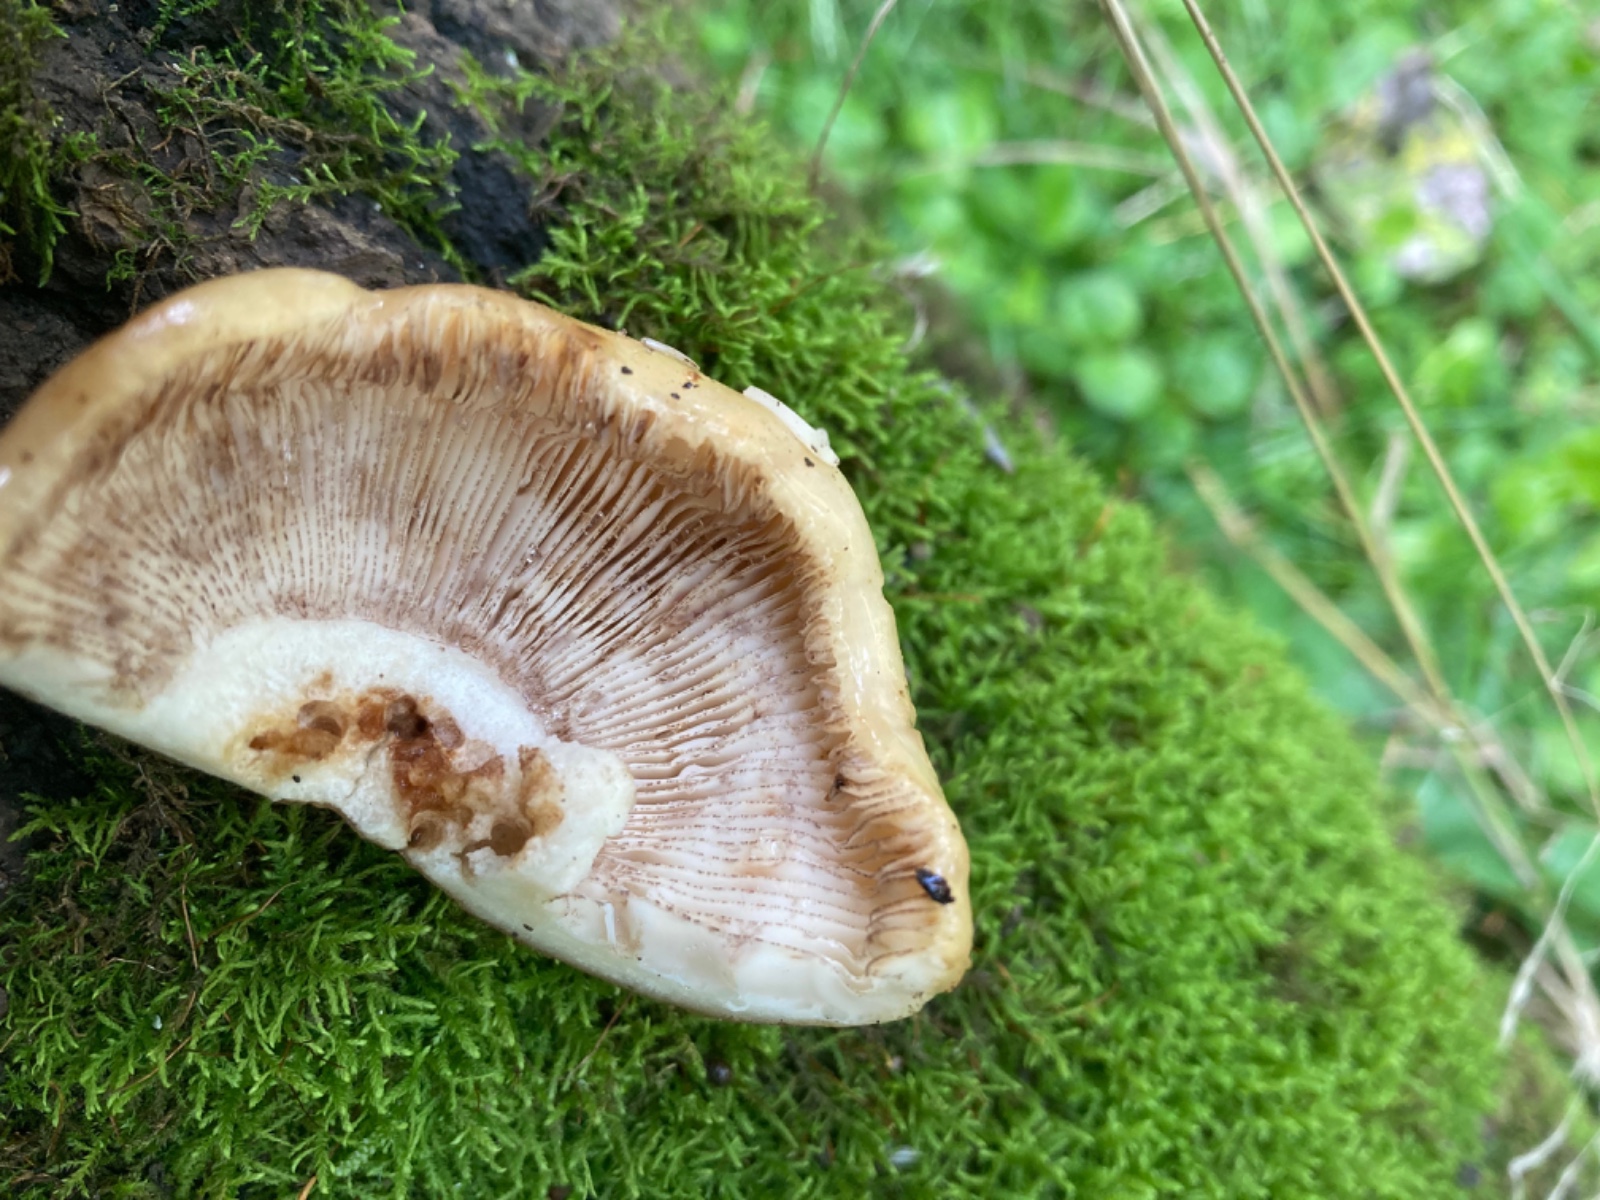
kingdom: Fungi
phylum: Basidiomycota
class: Agaricomycetes
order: Russulales
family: Russulaceae
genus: Russula
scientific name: Russula illota
